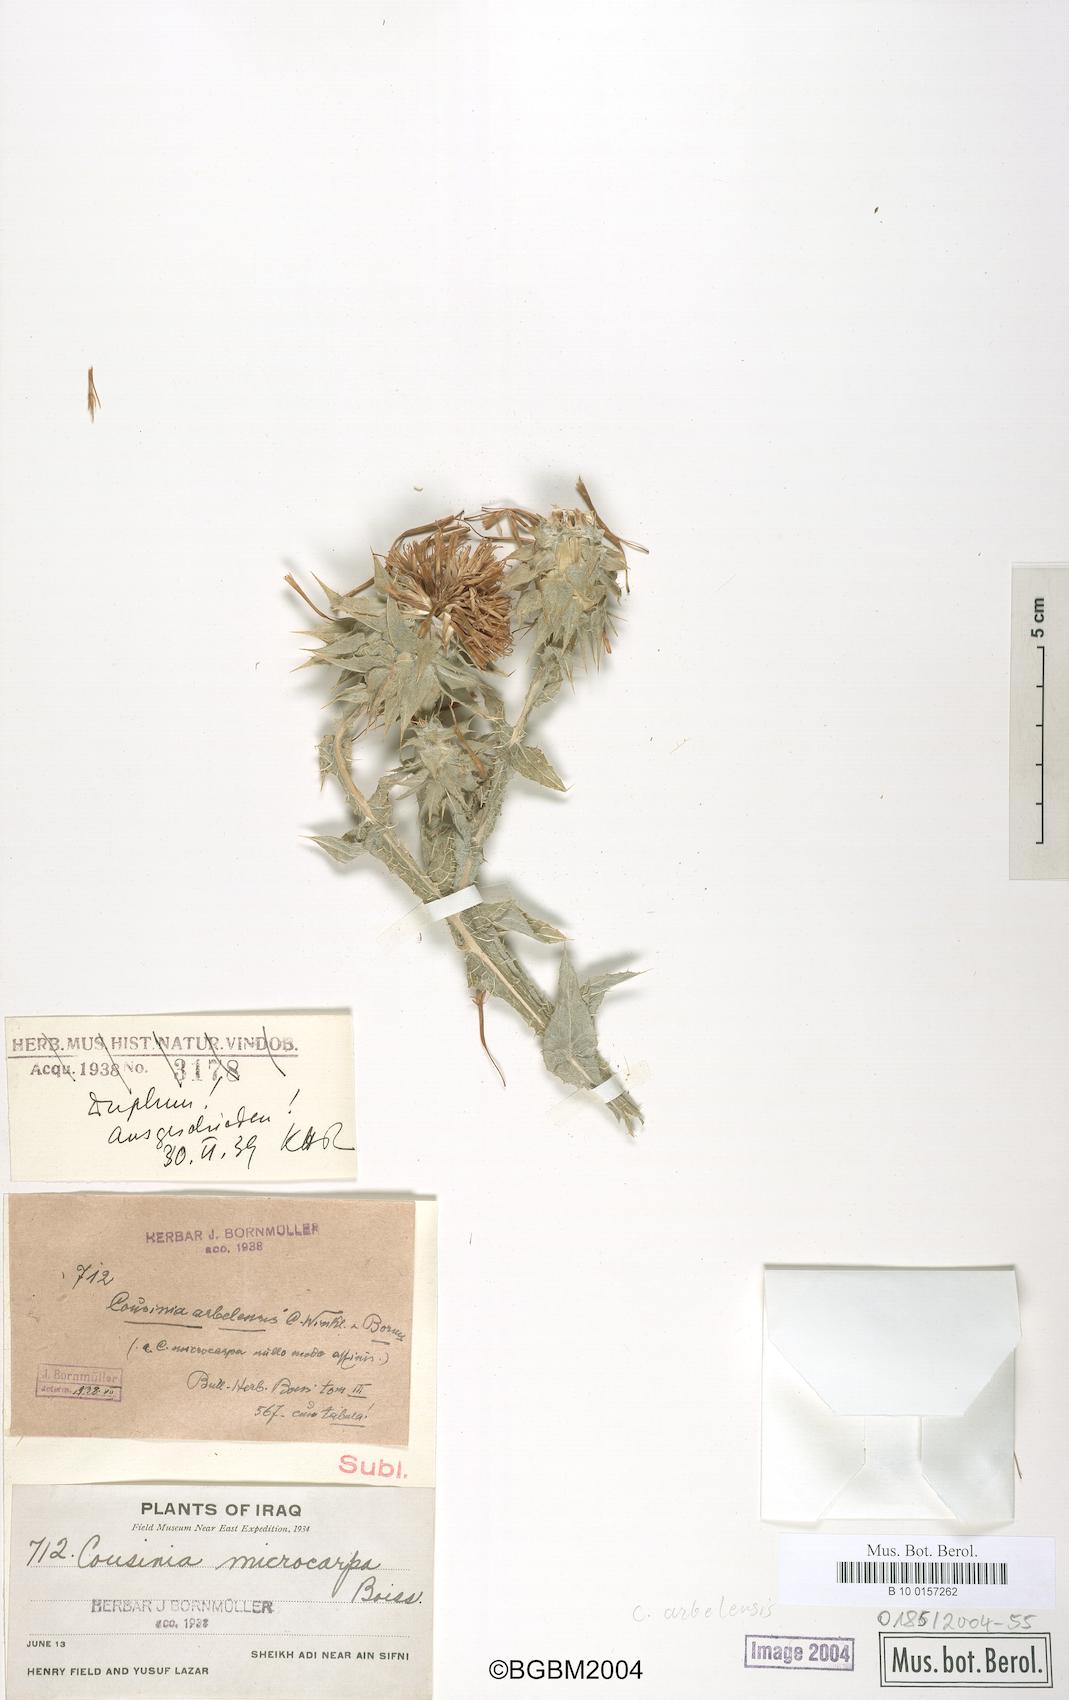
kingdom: Plantae
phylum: Tracheophyta
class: Magnoliopsida
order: Asterales
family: Asteraceae
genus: Cousinia
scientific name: Cousinia aintabensis
